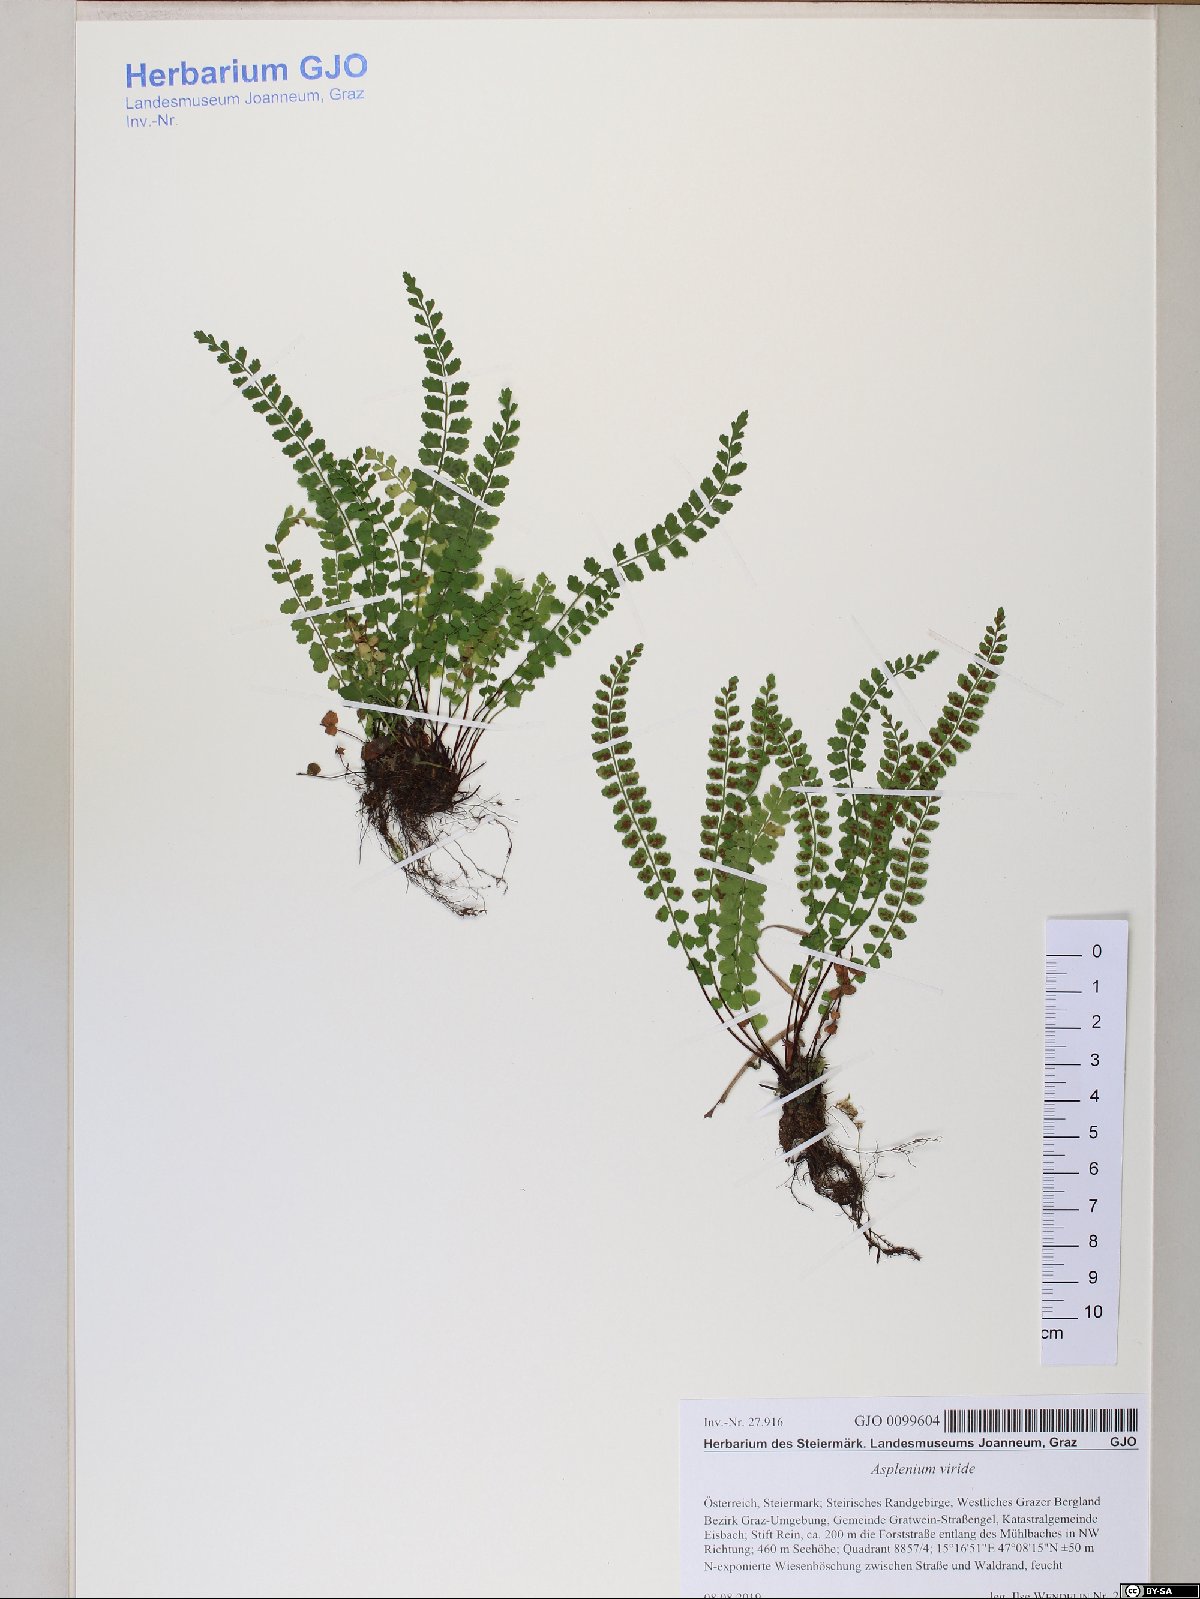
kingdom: Plantae
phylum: Tracheophyta
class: Polypodiopsida
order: Polypodiales
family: Aspleniaceae
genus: Asplenium
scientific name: Asplenium viride
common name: Green spleenwort
